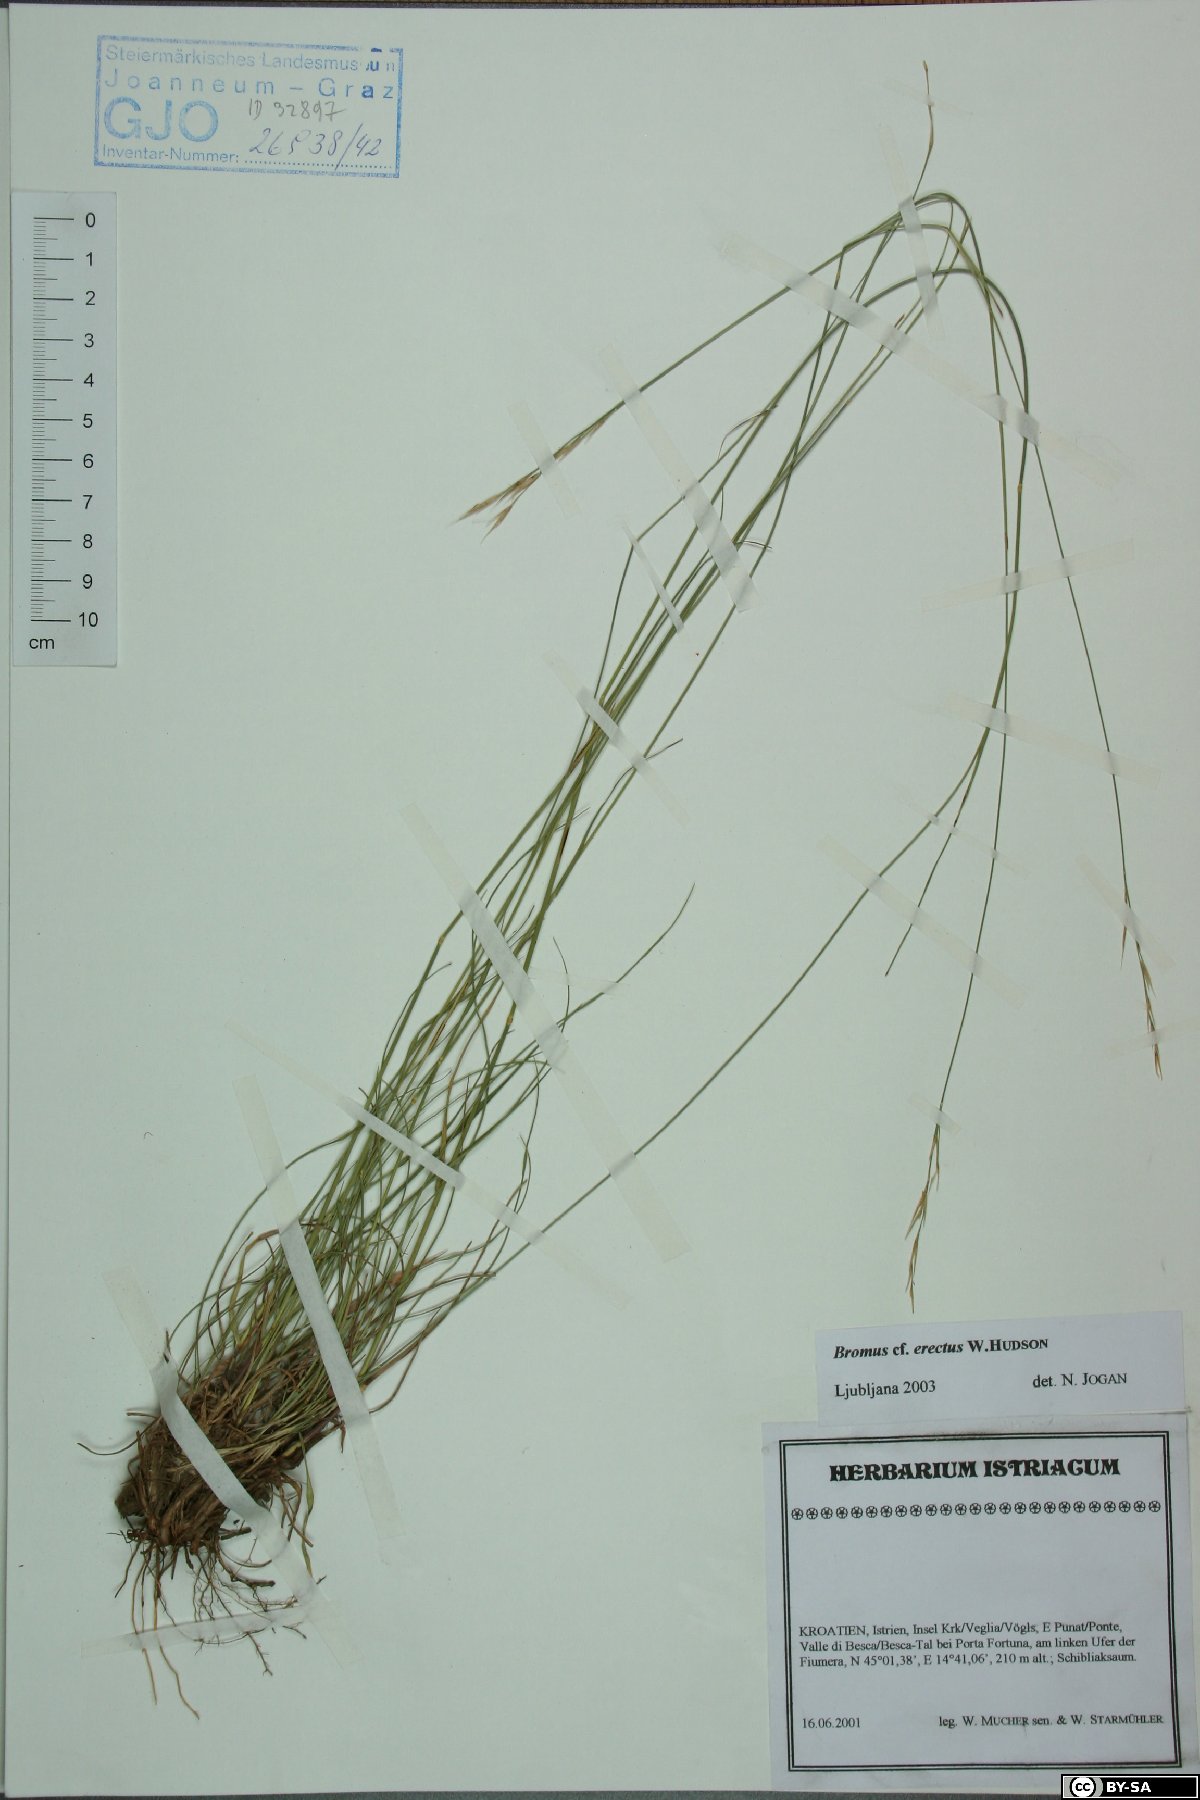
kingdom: Plantae
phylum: Tracheophyta
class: Liliopsida
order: Poales
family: Poaceae
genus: Bromus
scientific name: Bromus erectus
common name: Erect brome
